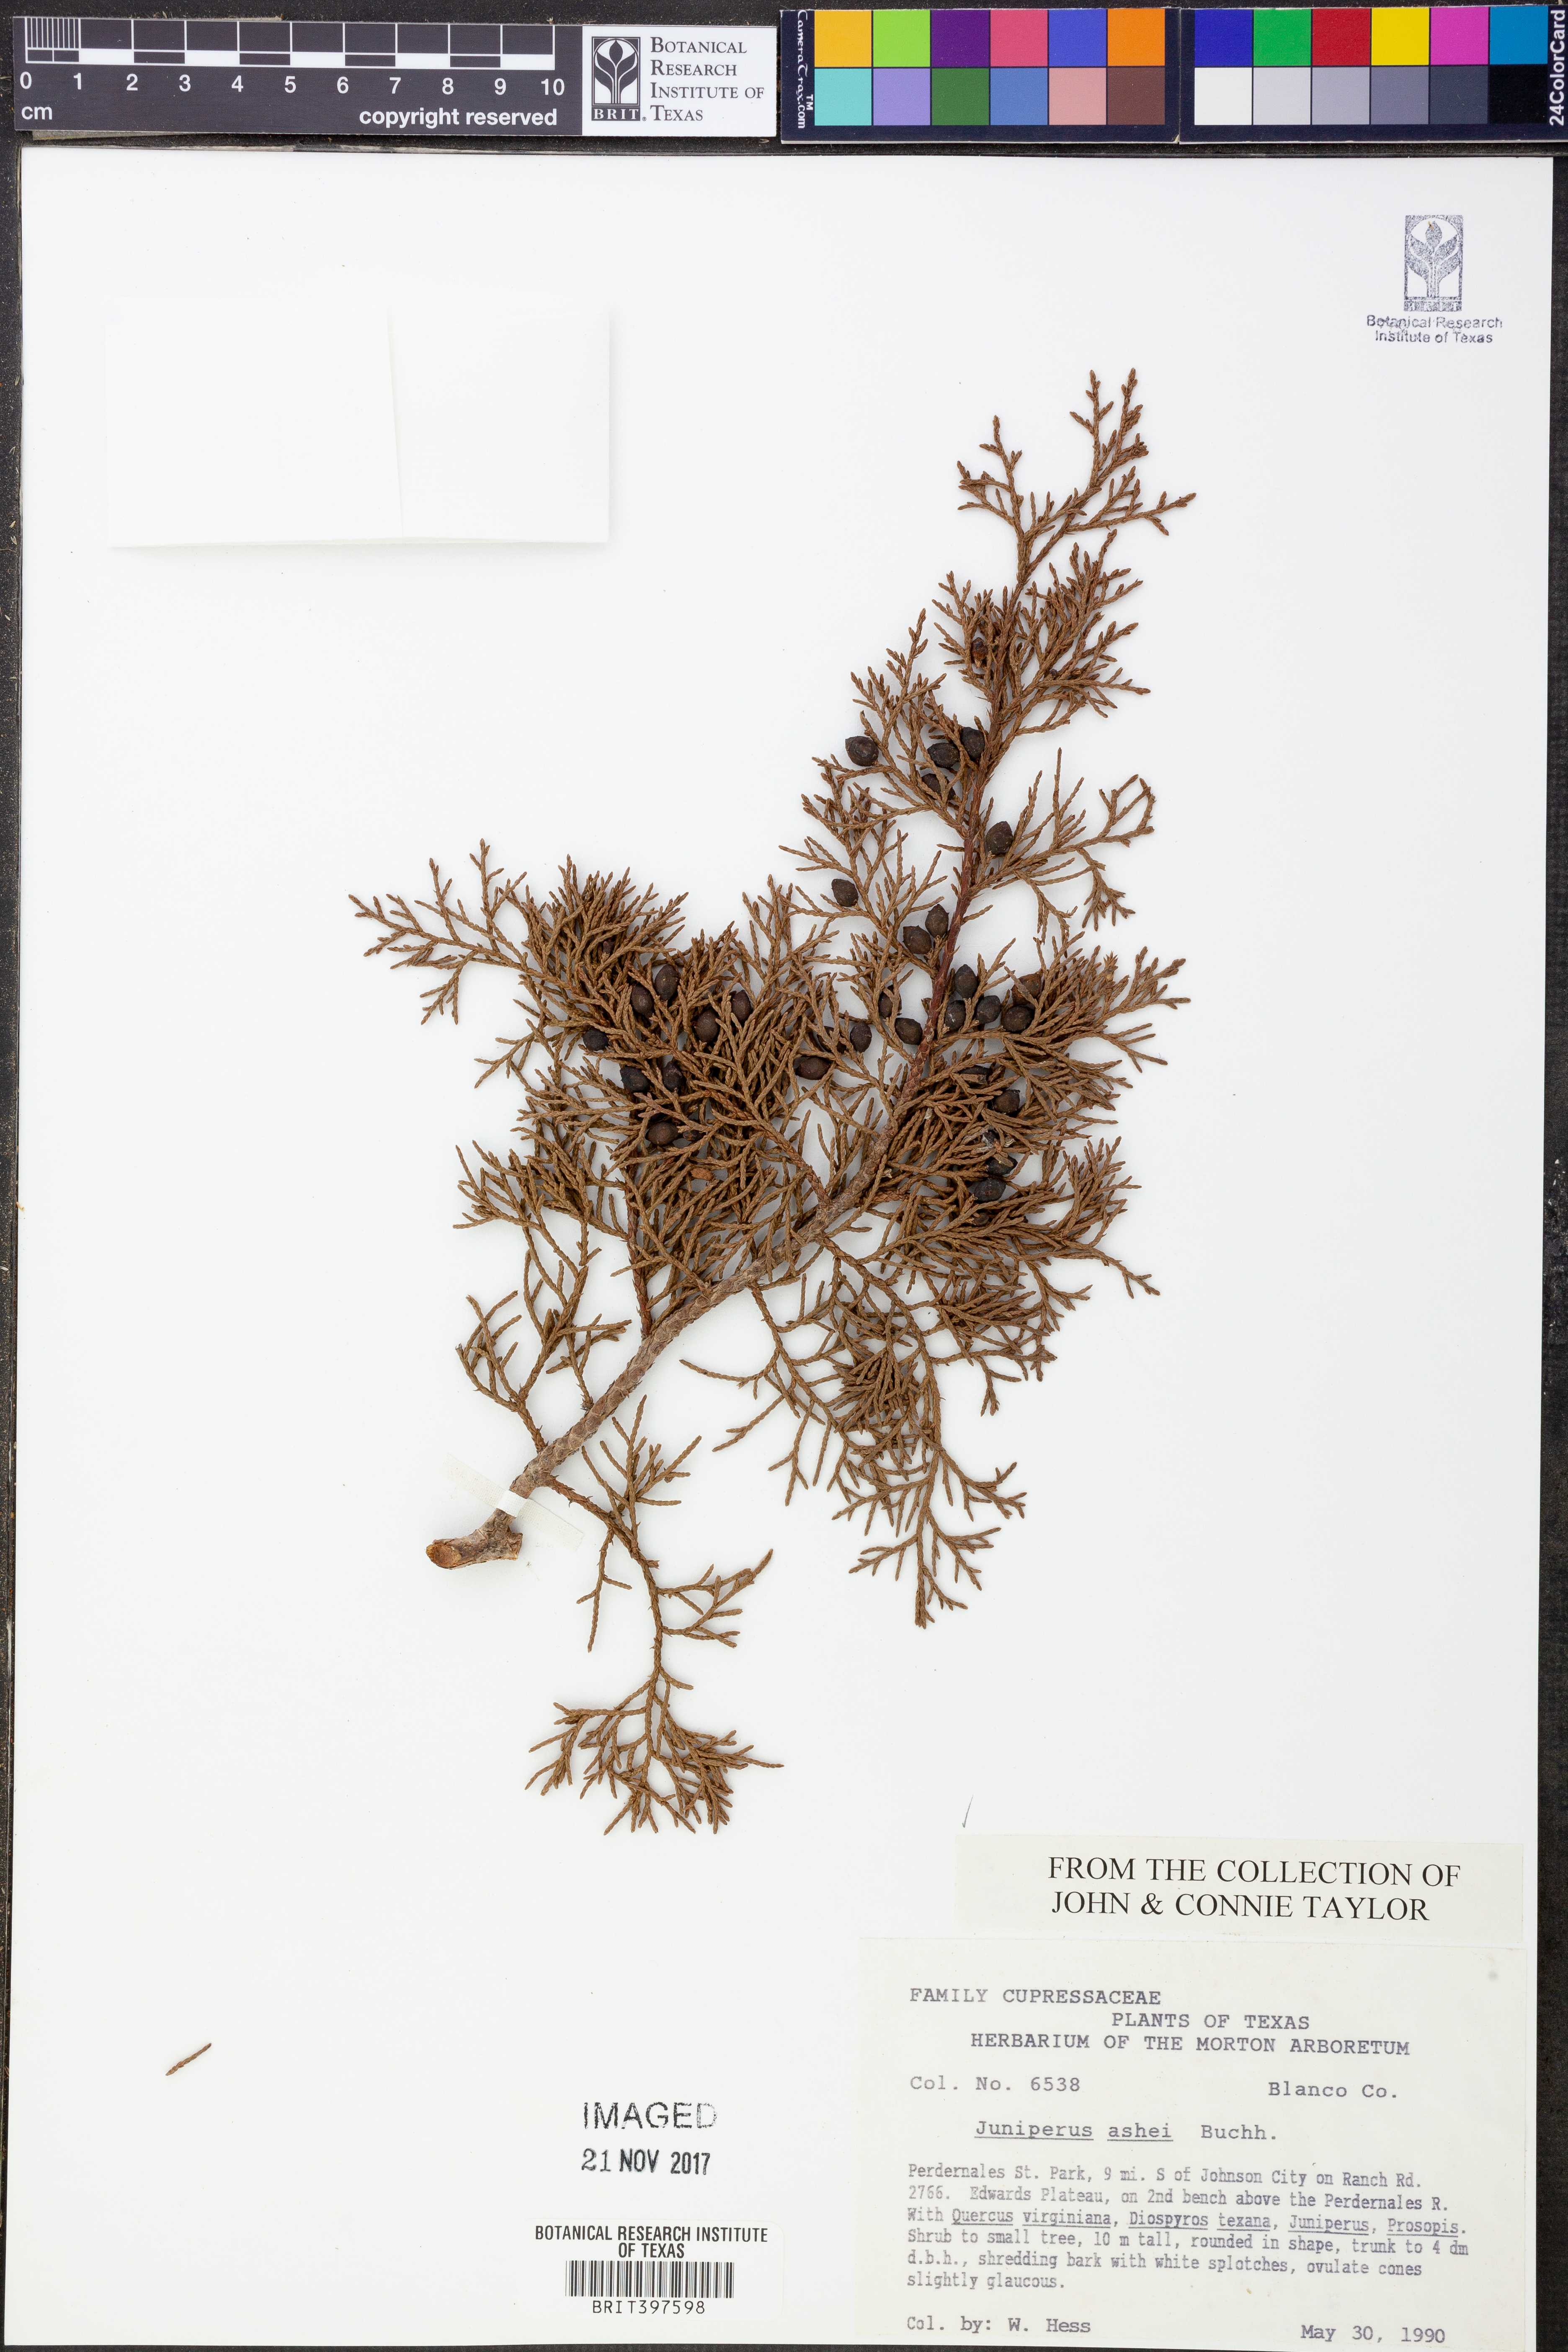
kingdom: Plantae
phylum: Tracheophyta
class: Pinopsida
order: Pinales
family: Cupressaceae
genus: Juniperus
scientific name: Juniperus ashei
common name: Mexican juniper
